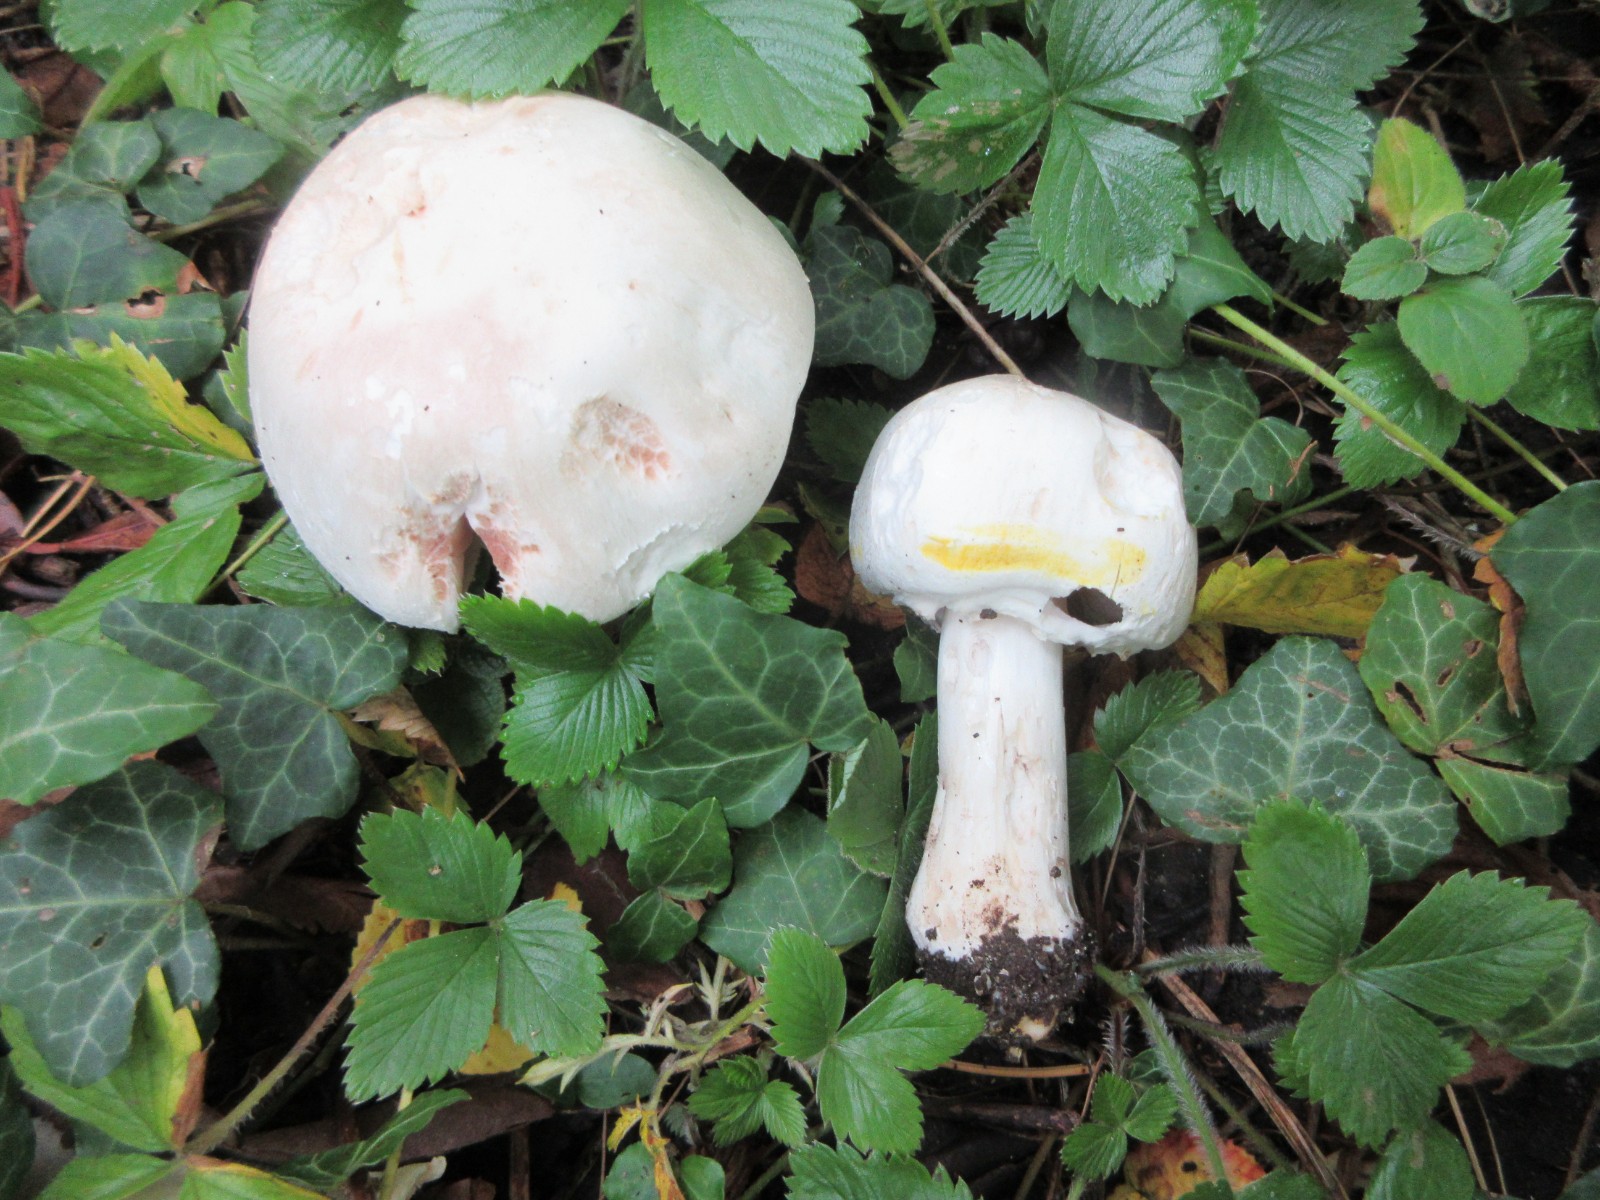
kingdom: Fungi
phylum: Basidiomycota
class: Agaricomycetes
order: Agaricales
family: Agaricaceae
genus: Agaricus
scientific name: Agaricus xanthodermus
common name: karbol-champignon
